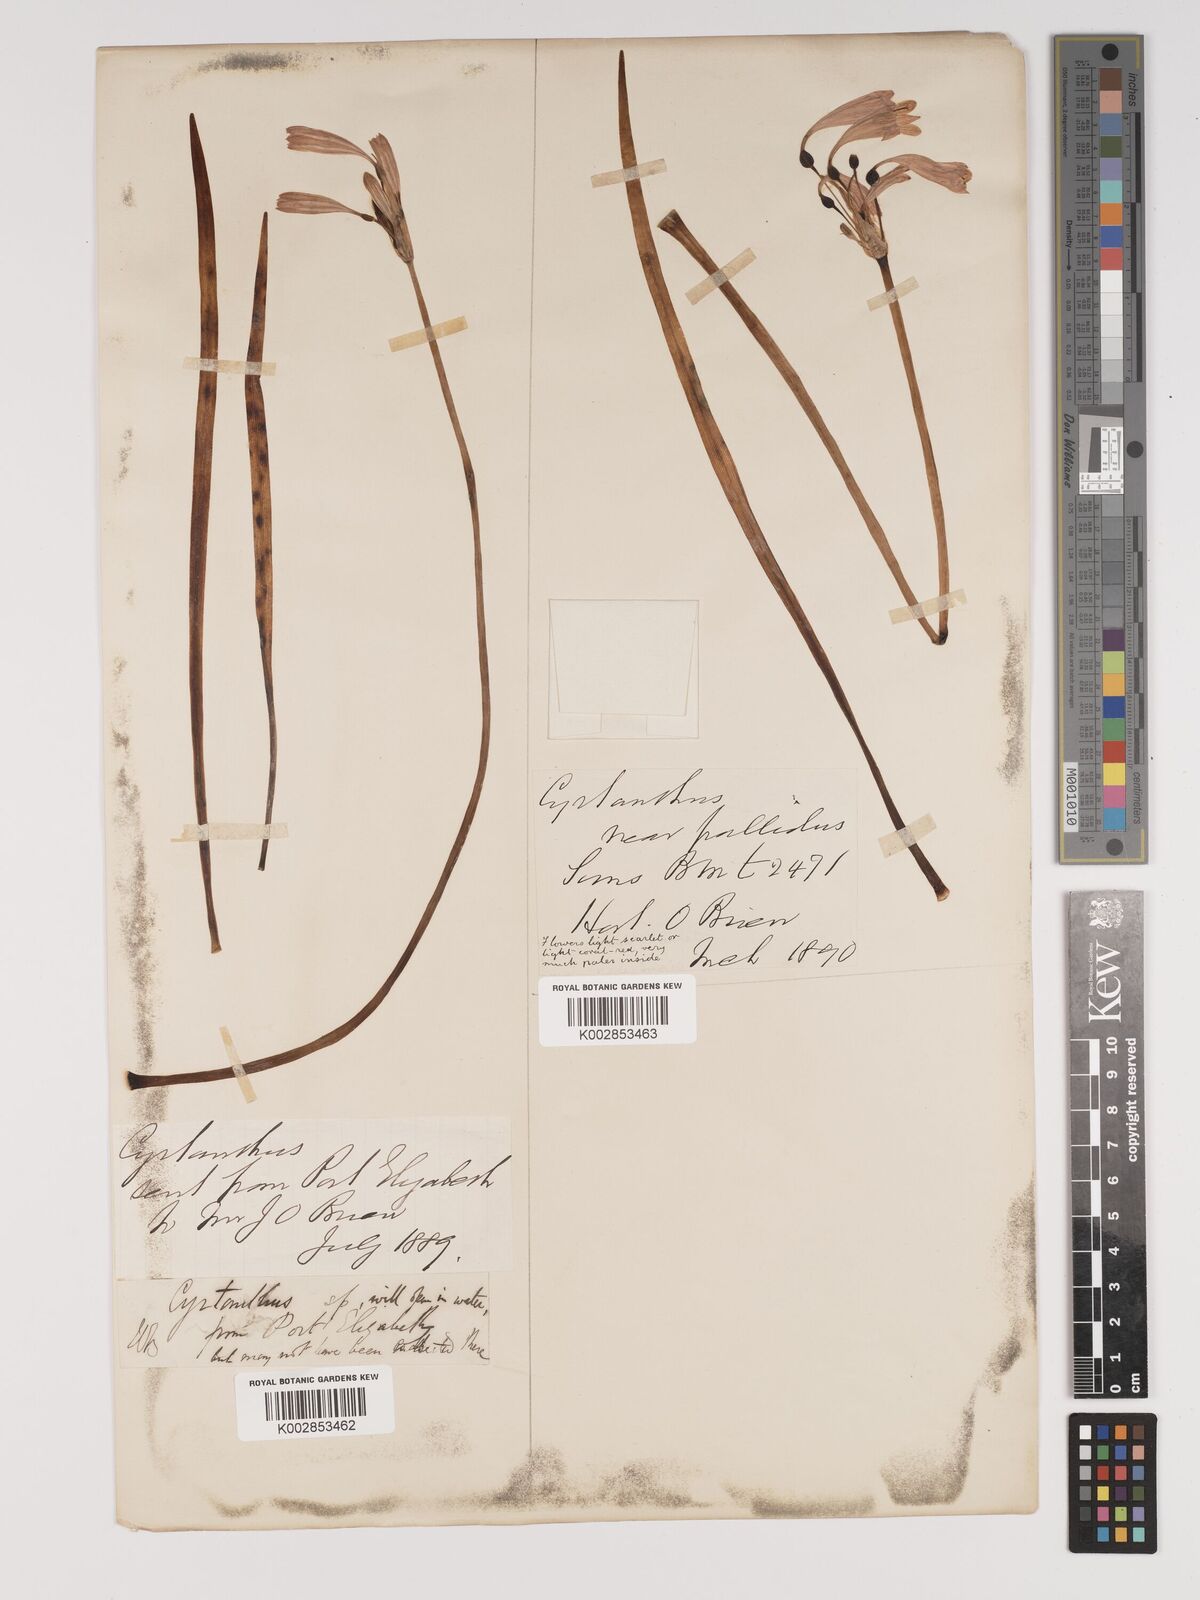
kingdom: Plantae
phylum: Tracheophyta
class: Liliopsida
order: Asparagales
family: Amaryllidaceae
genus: Cyrtanthus
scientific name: Cyrtanthus bicolor
